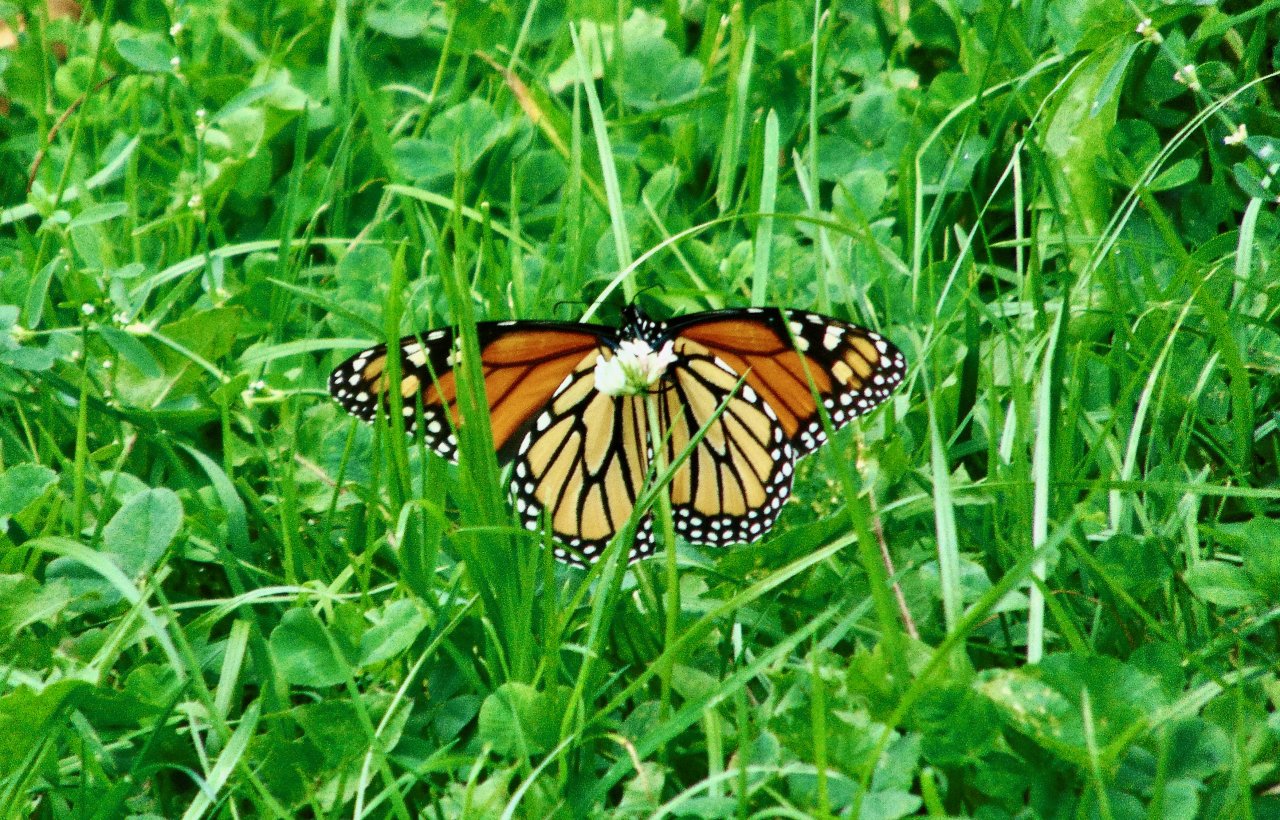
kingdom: Animalia
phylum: Arthropoda
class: Insecta
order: Lepidoptera
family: Nymphalidae
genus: Danaus
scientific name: Danaus plexippus
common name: Monarch
